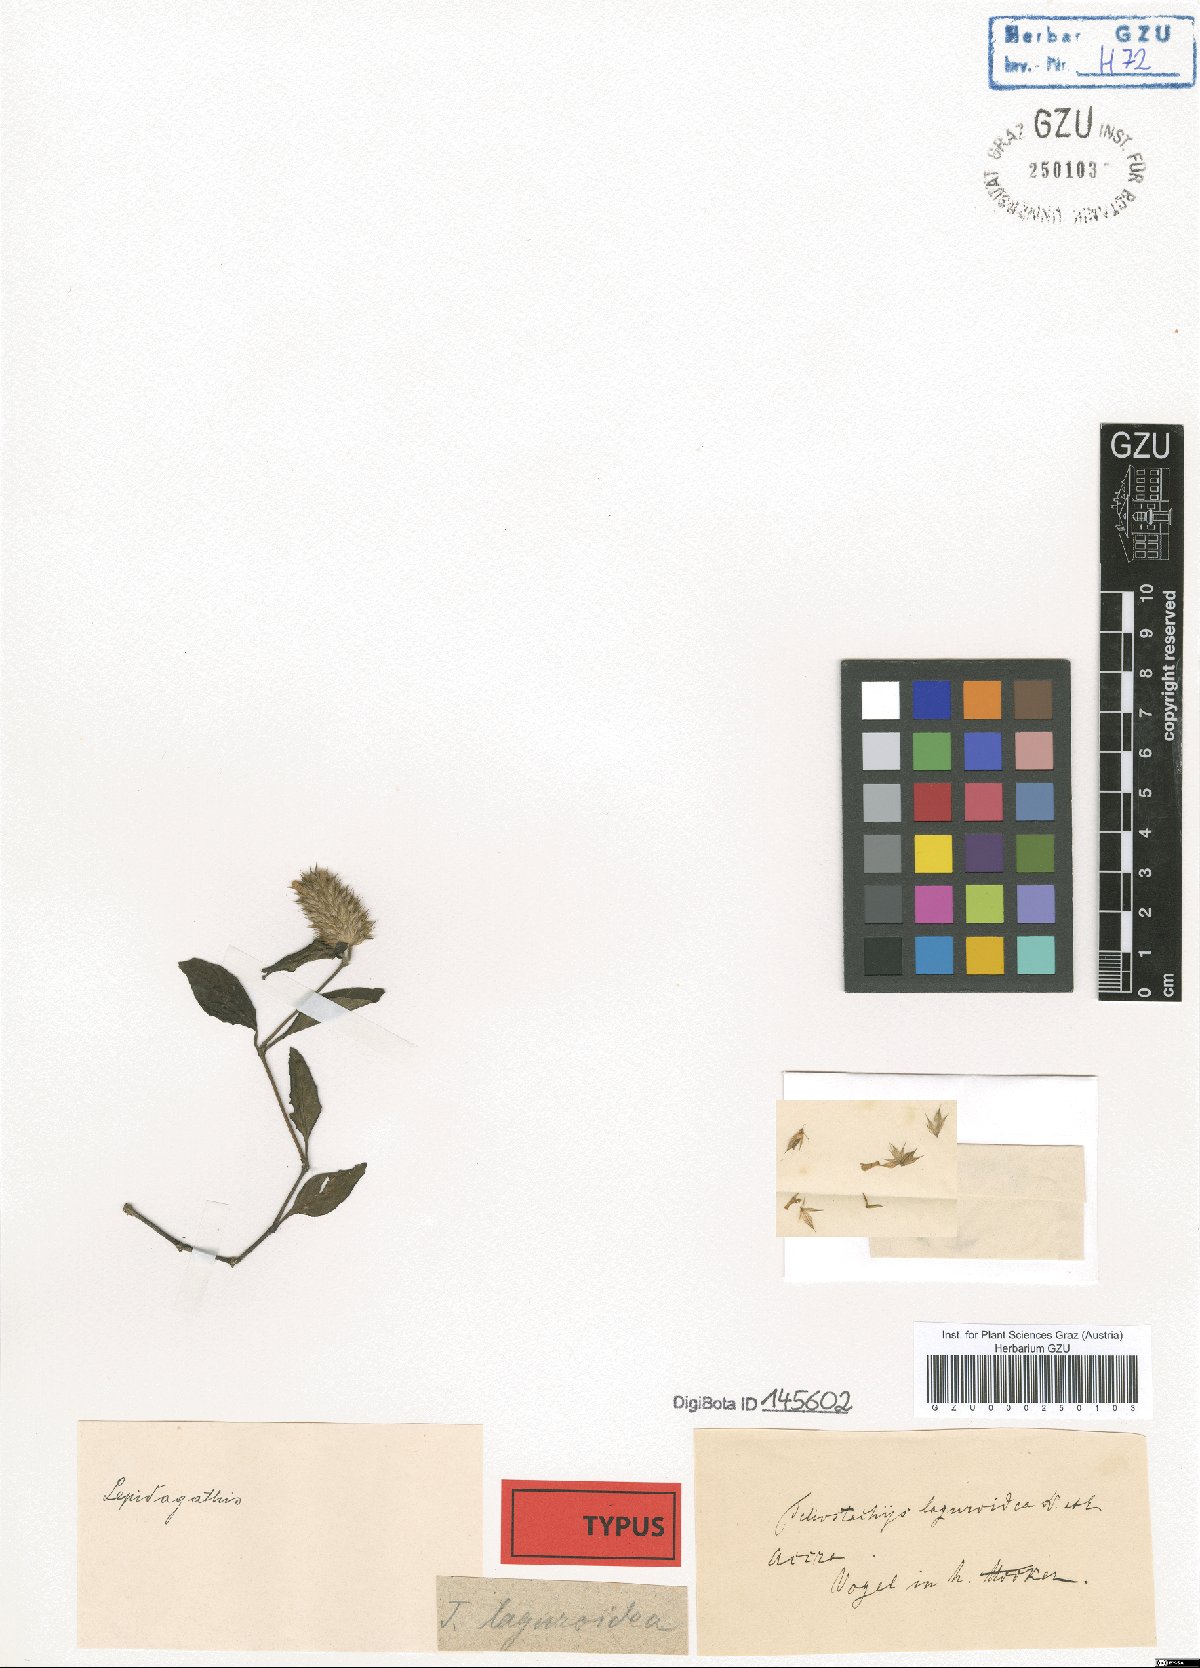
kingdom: Plantae
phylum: Tracheophyta
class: Magnoliopsida
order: Lamiales
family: Acanthaceae
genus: Lepidagathis
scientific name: Lepidagathis alopecuroidea
